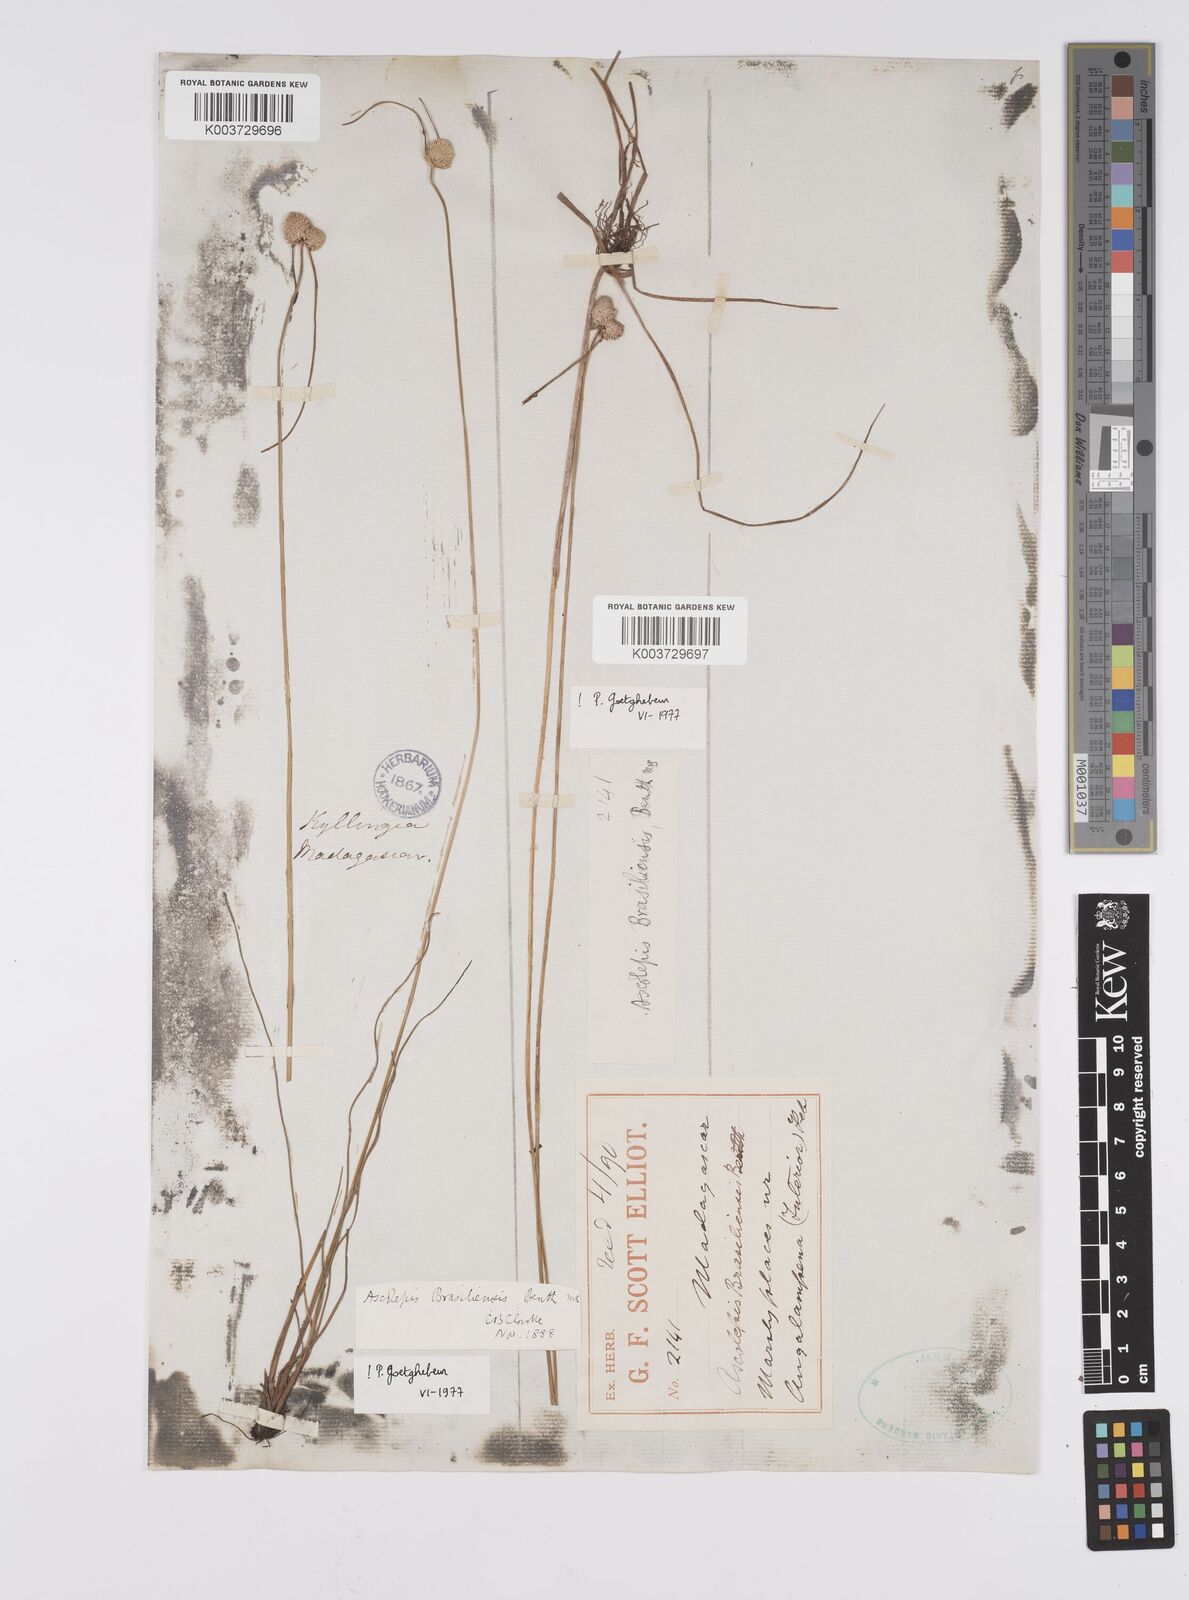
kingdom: Plantae
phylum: Tracheophyta
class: Liliopsida
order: Poales
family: Cyperaceae
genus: Cyperus
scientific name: Cyperus brasiliensis
